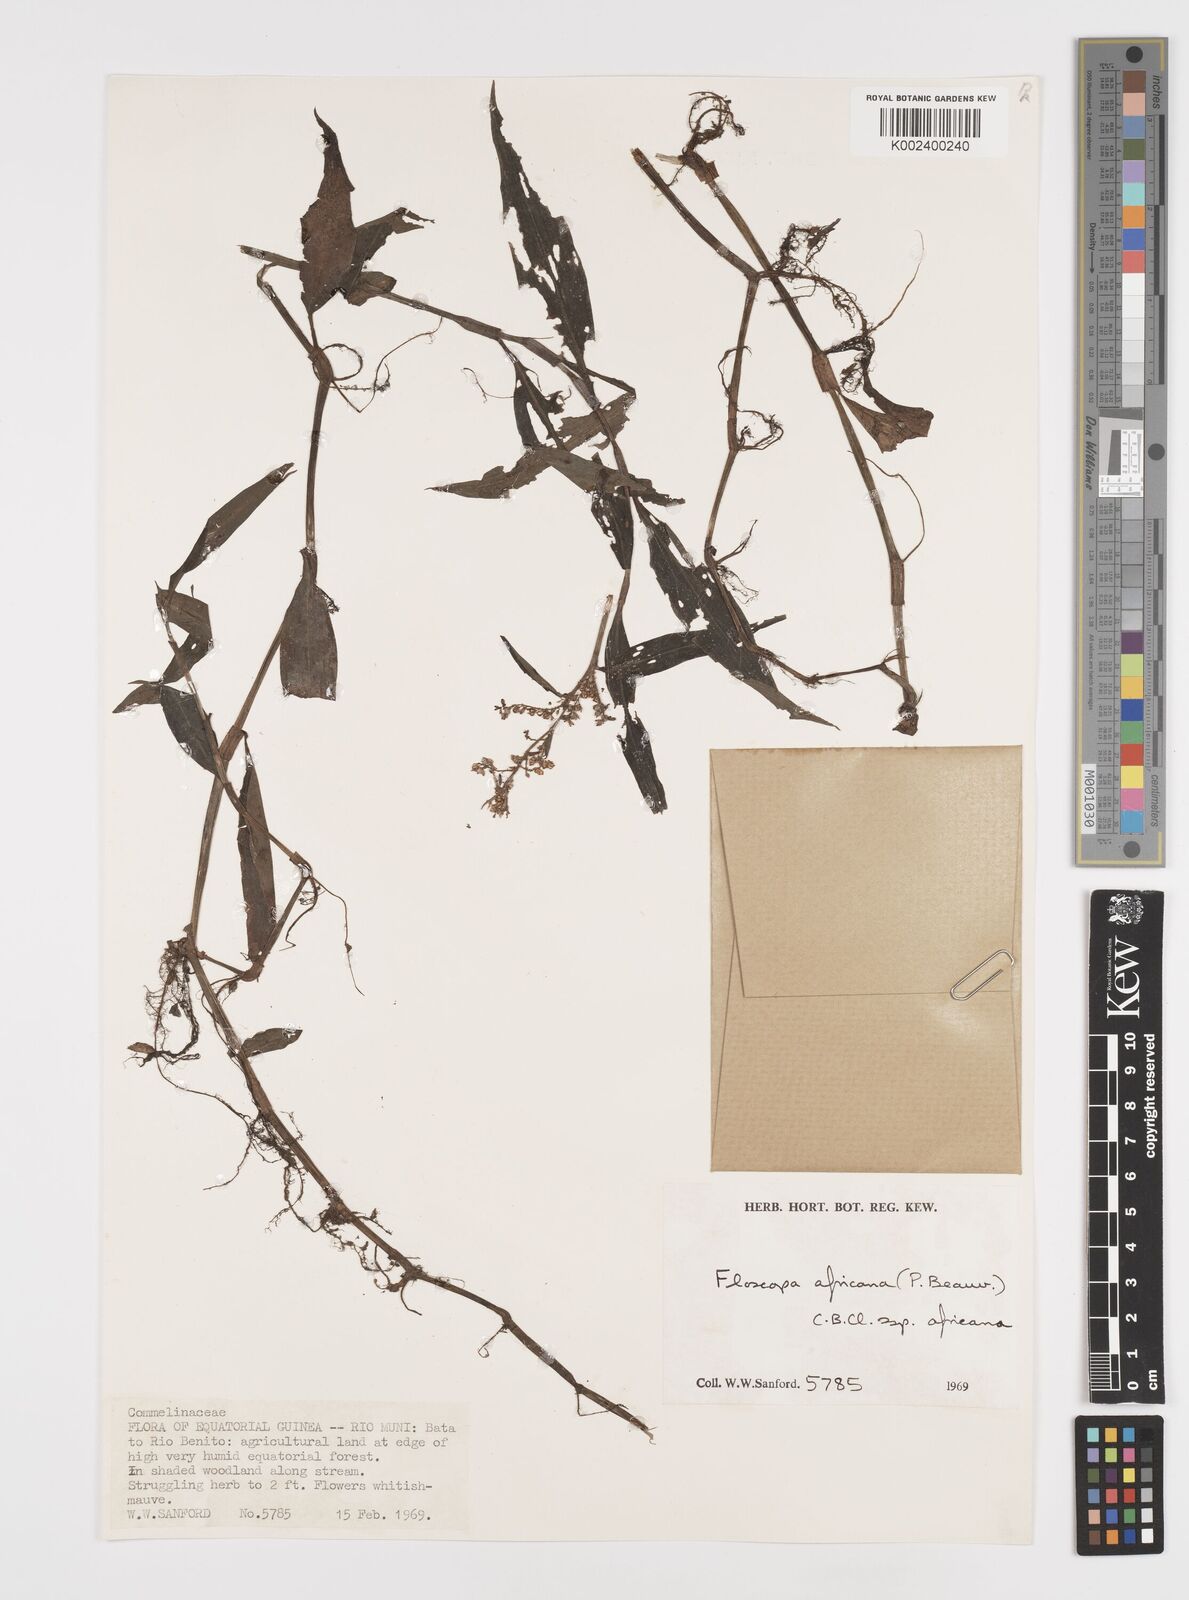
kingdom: Plantae
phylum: Tracheophyta
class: Liliopsida
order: Commelinales
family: Commelinaceae
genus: Floscopa
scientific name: Floscopa africana
